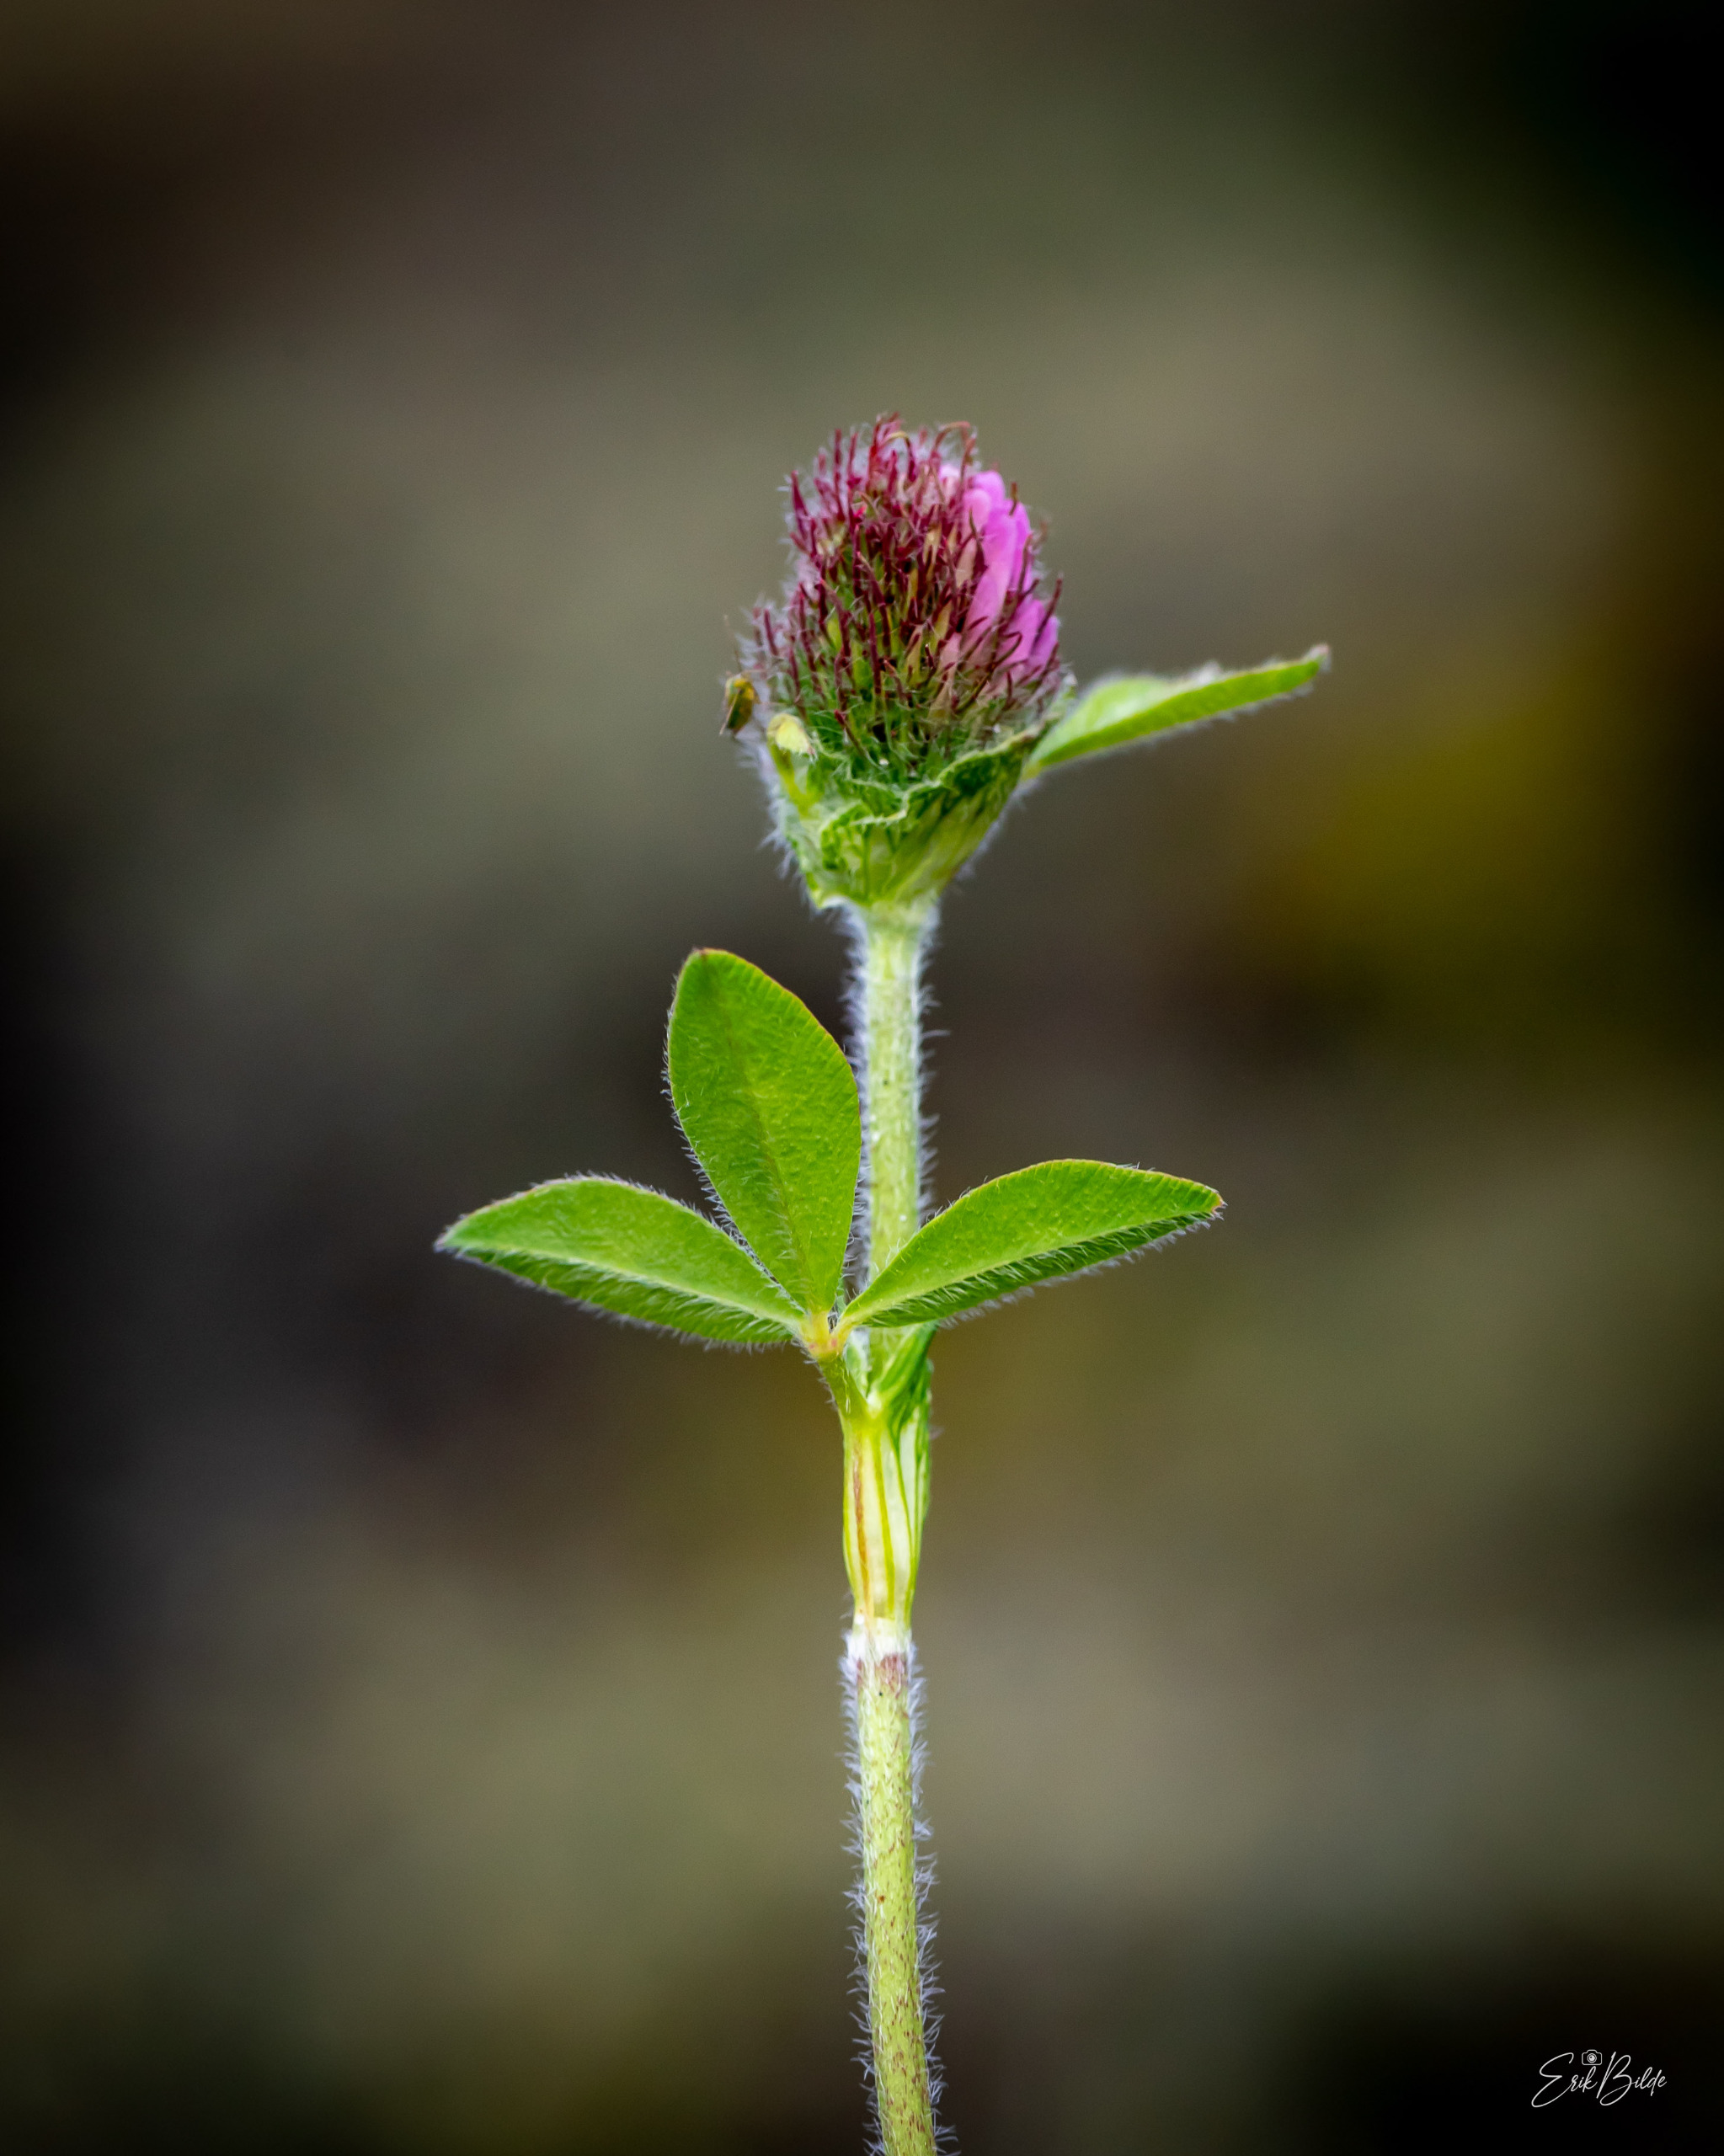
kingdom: Plantae
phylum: Tracheophyta
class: Magnoliopsida
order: Fabales
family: Fabaceae
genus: Trifolium
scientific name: Trifolium pratense
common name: Rød-kløver
